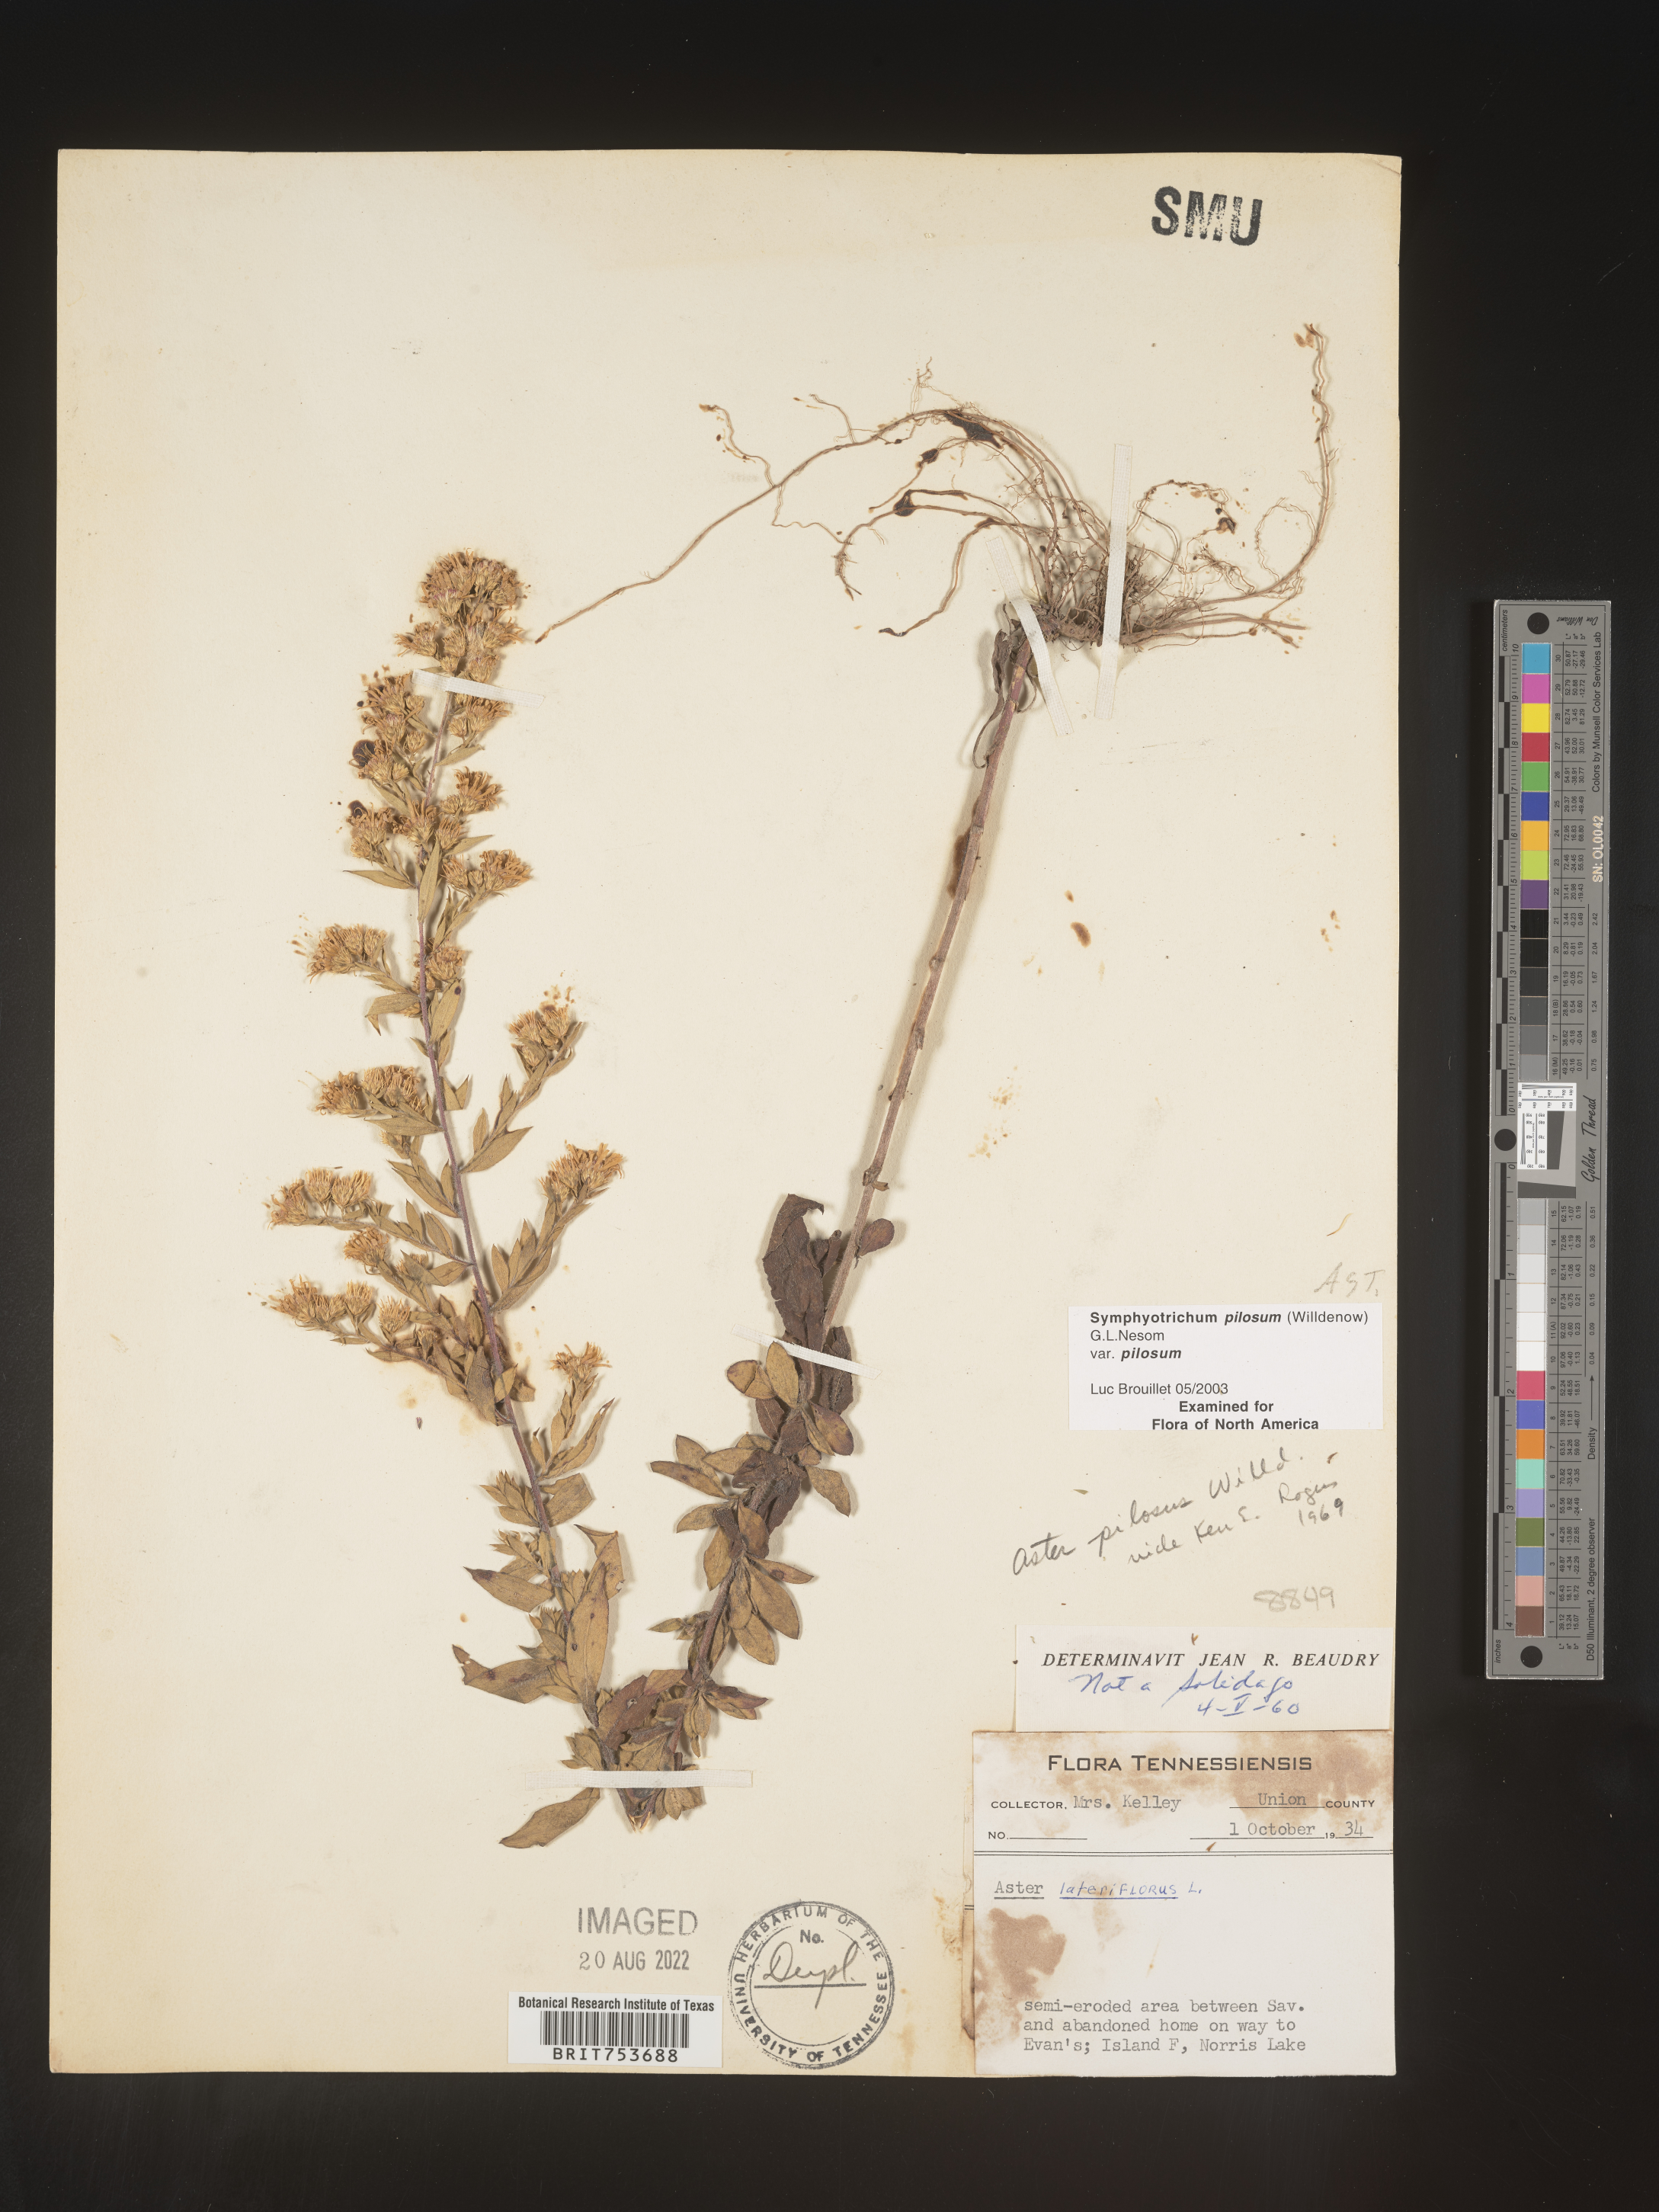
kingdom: Plantae
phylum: Tracheophyta
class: Magnoliopsida
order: Asterales
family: Asteraceae
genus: Symphyotrichum
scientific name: Symphyotrichum pilosum
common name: Awl aster
